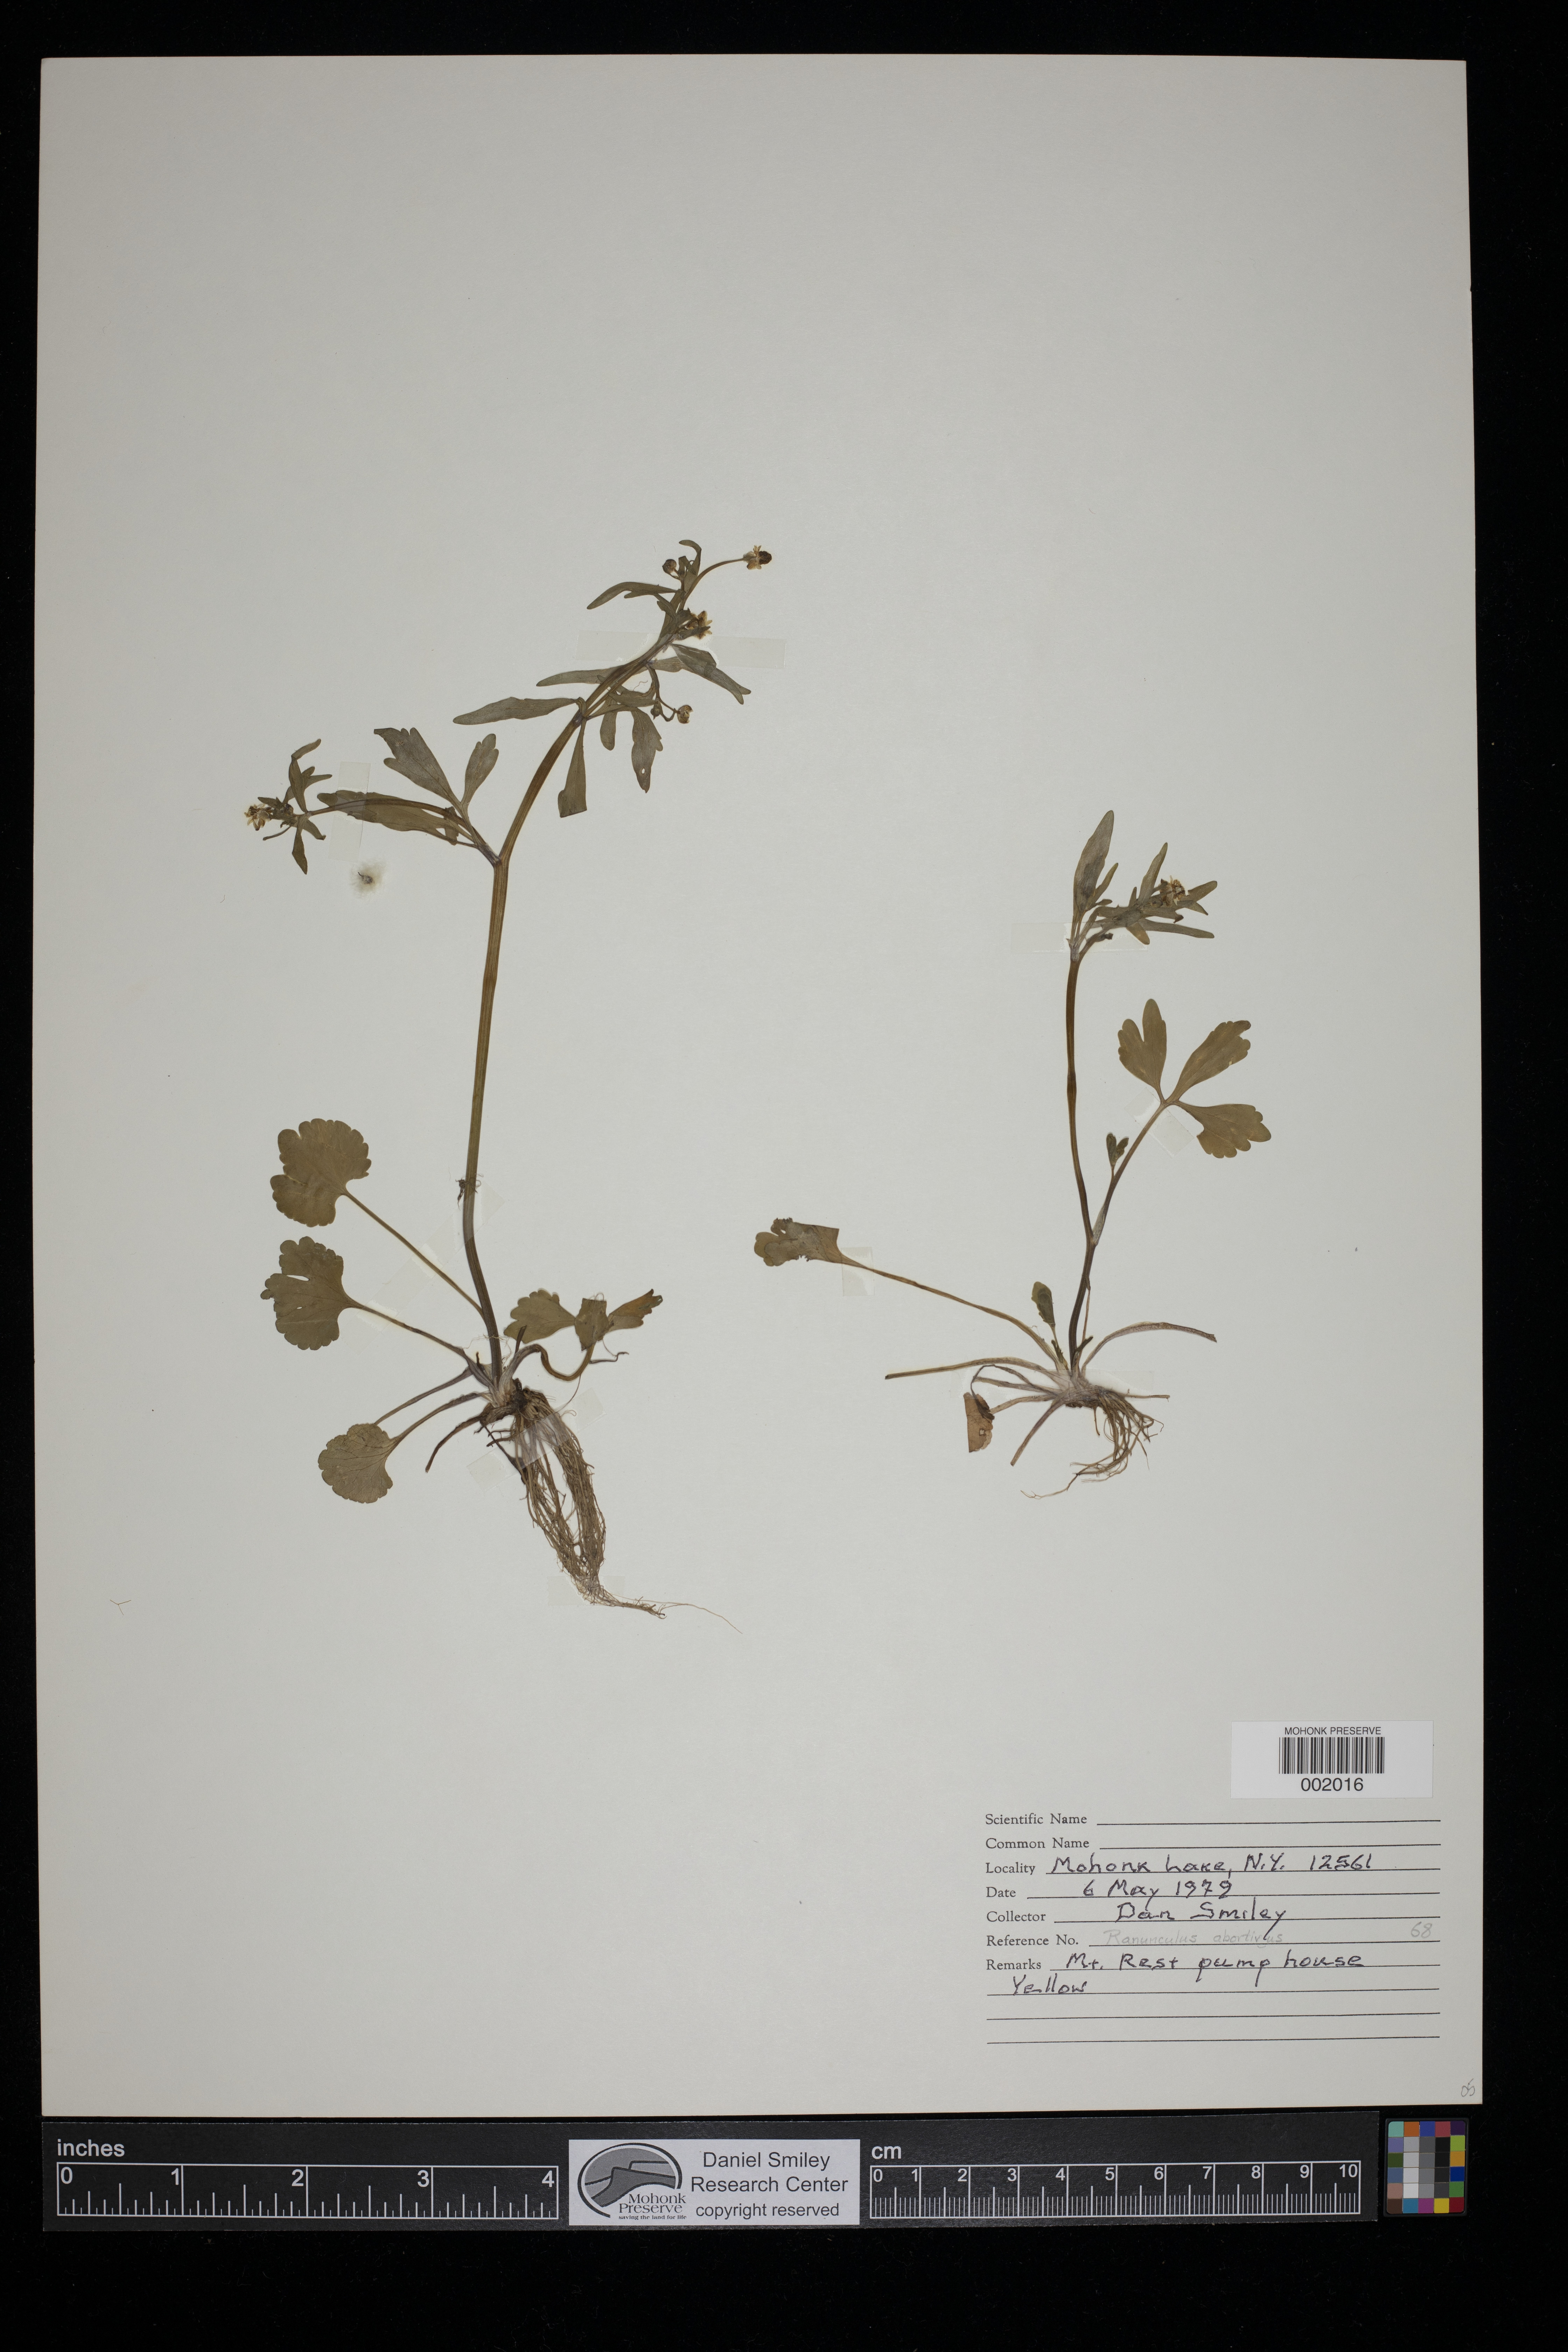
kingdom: Plantae
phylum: Tracheophyta
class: Magnoliopsida
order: Ranunculales
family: Ranunculaceae
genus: Ranunculus
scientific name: Ranunculus
